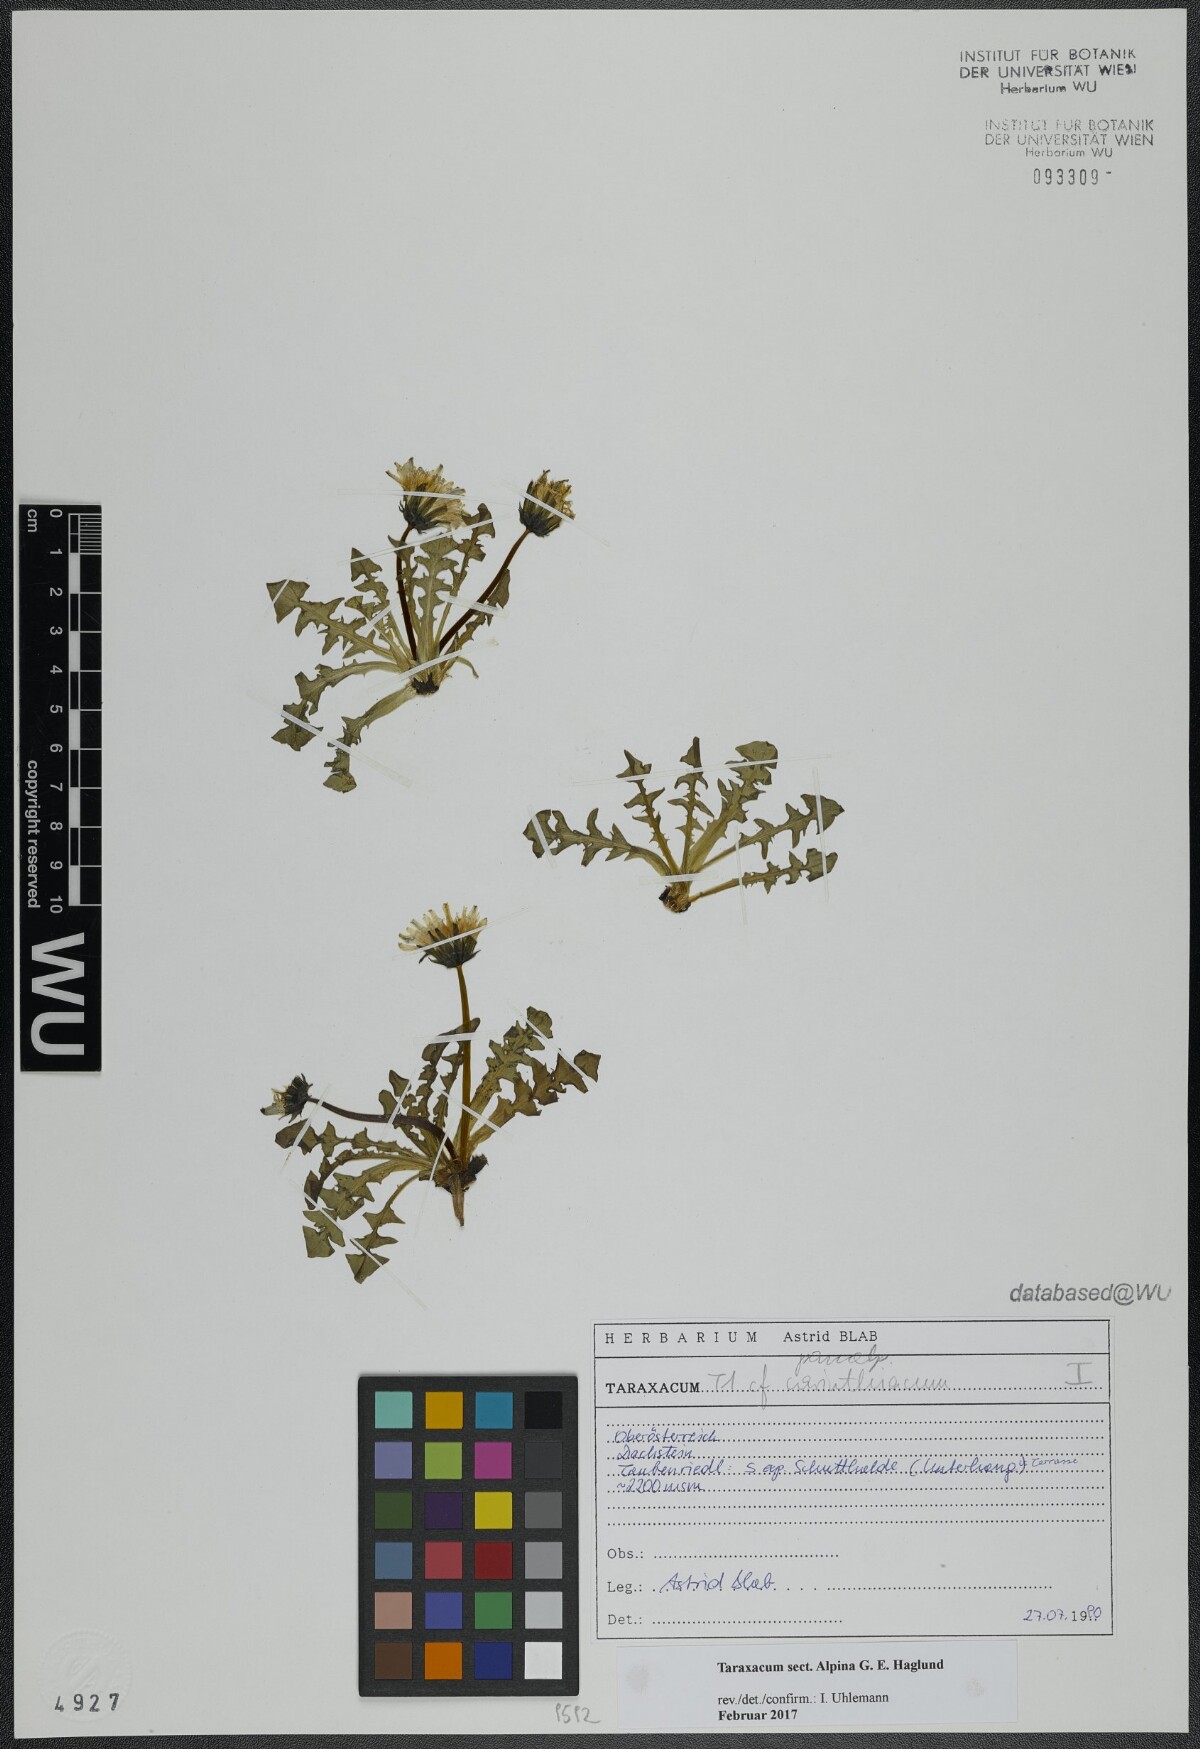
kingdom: Plantae
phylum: Tracheophyta
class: Magnoliopsida
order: Asterales
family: Asteraceae
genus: Taraxacum
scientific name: Taraxacum
